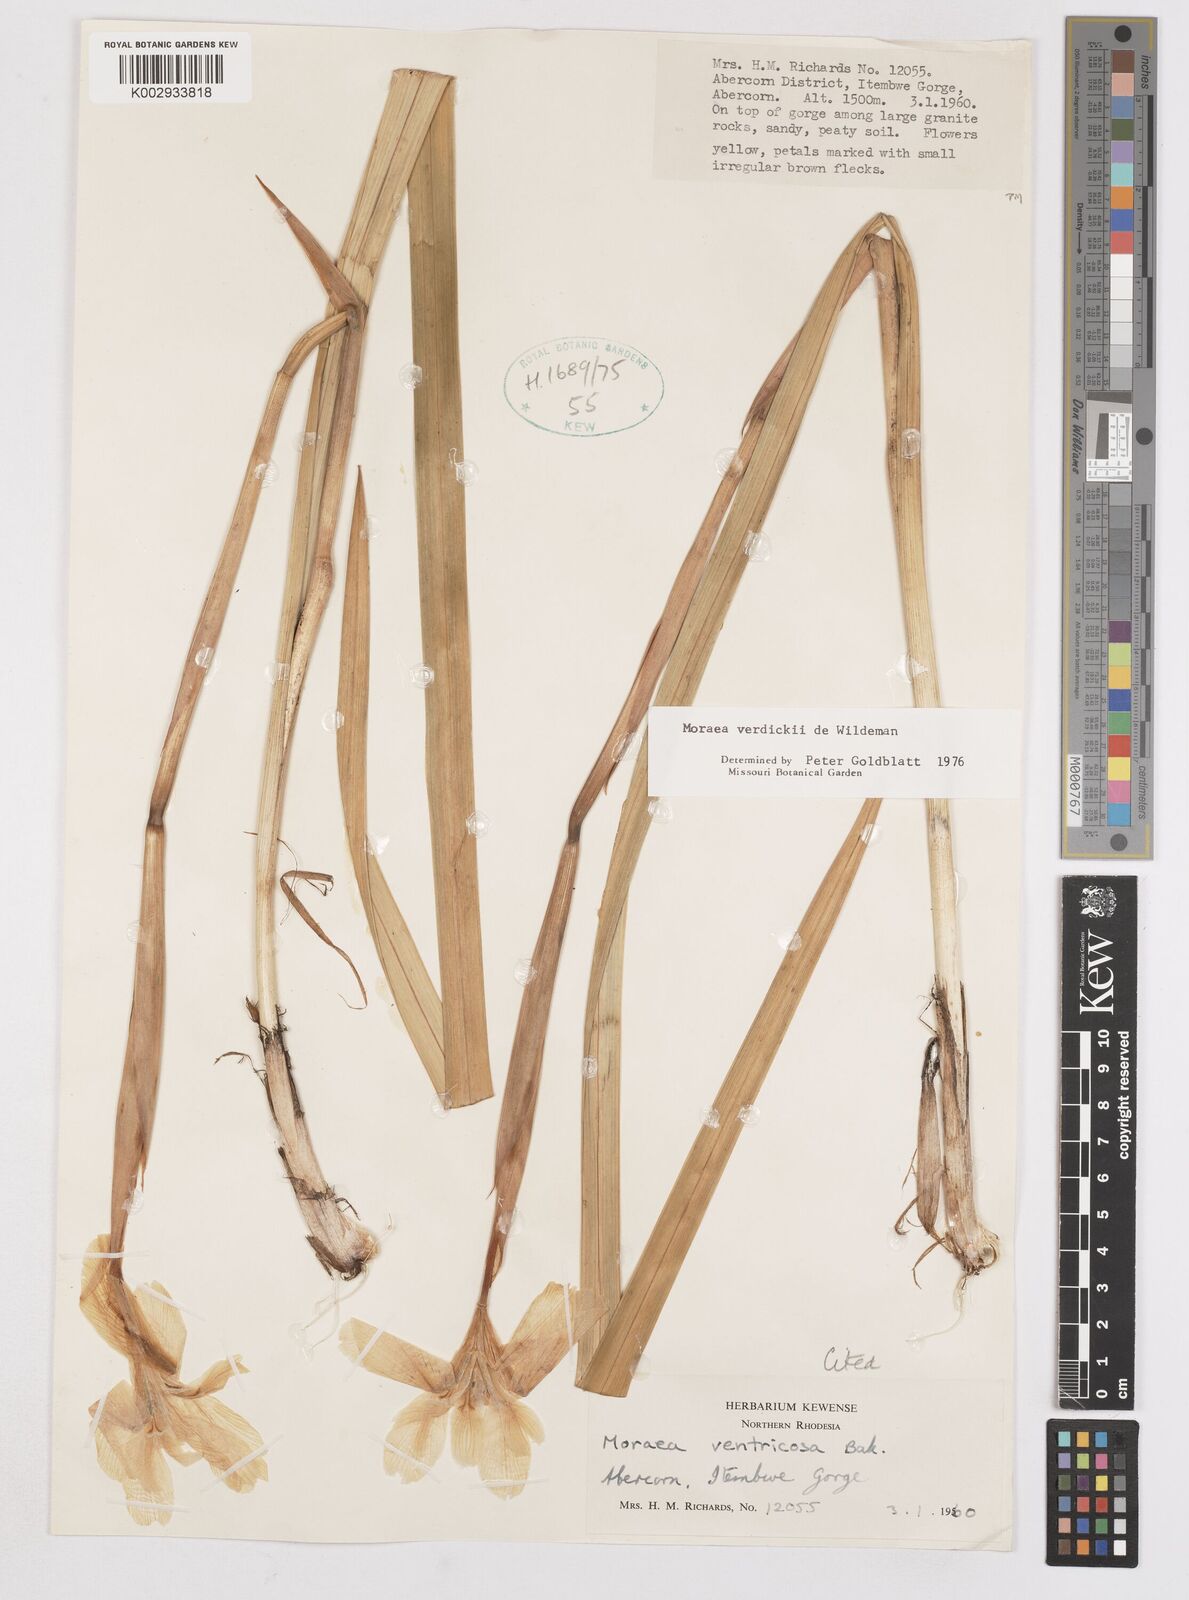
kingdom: Plantae
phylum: Tracheophyta
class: Liliopsida
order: Asparagales
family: Iridaceae
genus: Moraea
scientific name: Moraea verdickii
